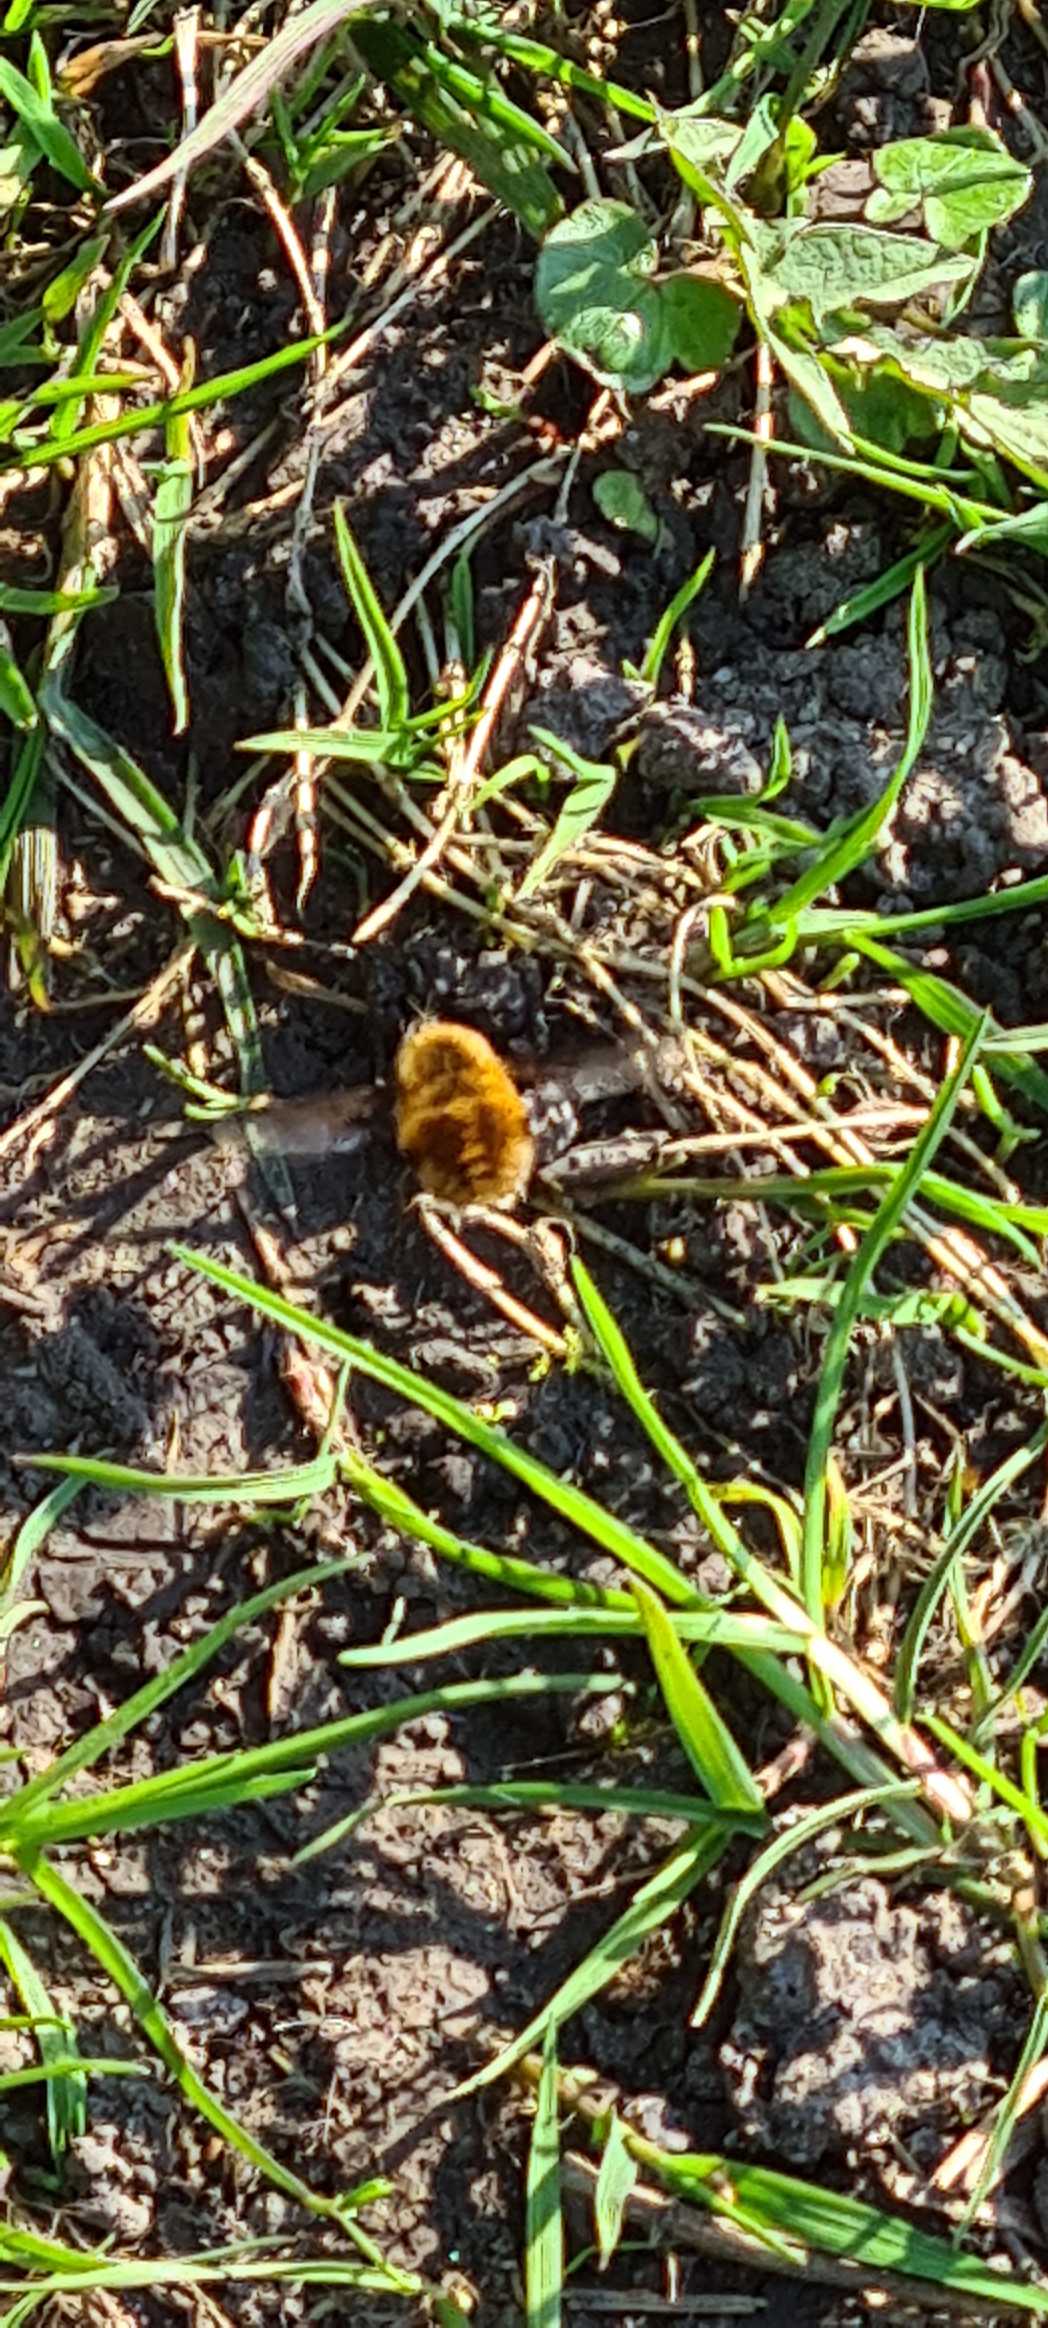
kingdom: Animalia
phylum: Arthropoda
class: Insecta
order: Diptera
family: Bombyliidae
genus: Bombylius
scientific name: Bombylius major
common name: Stor humleflue
